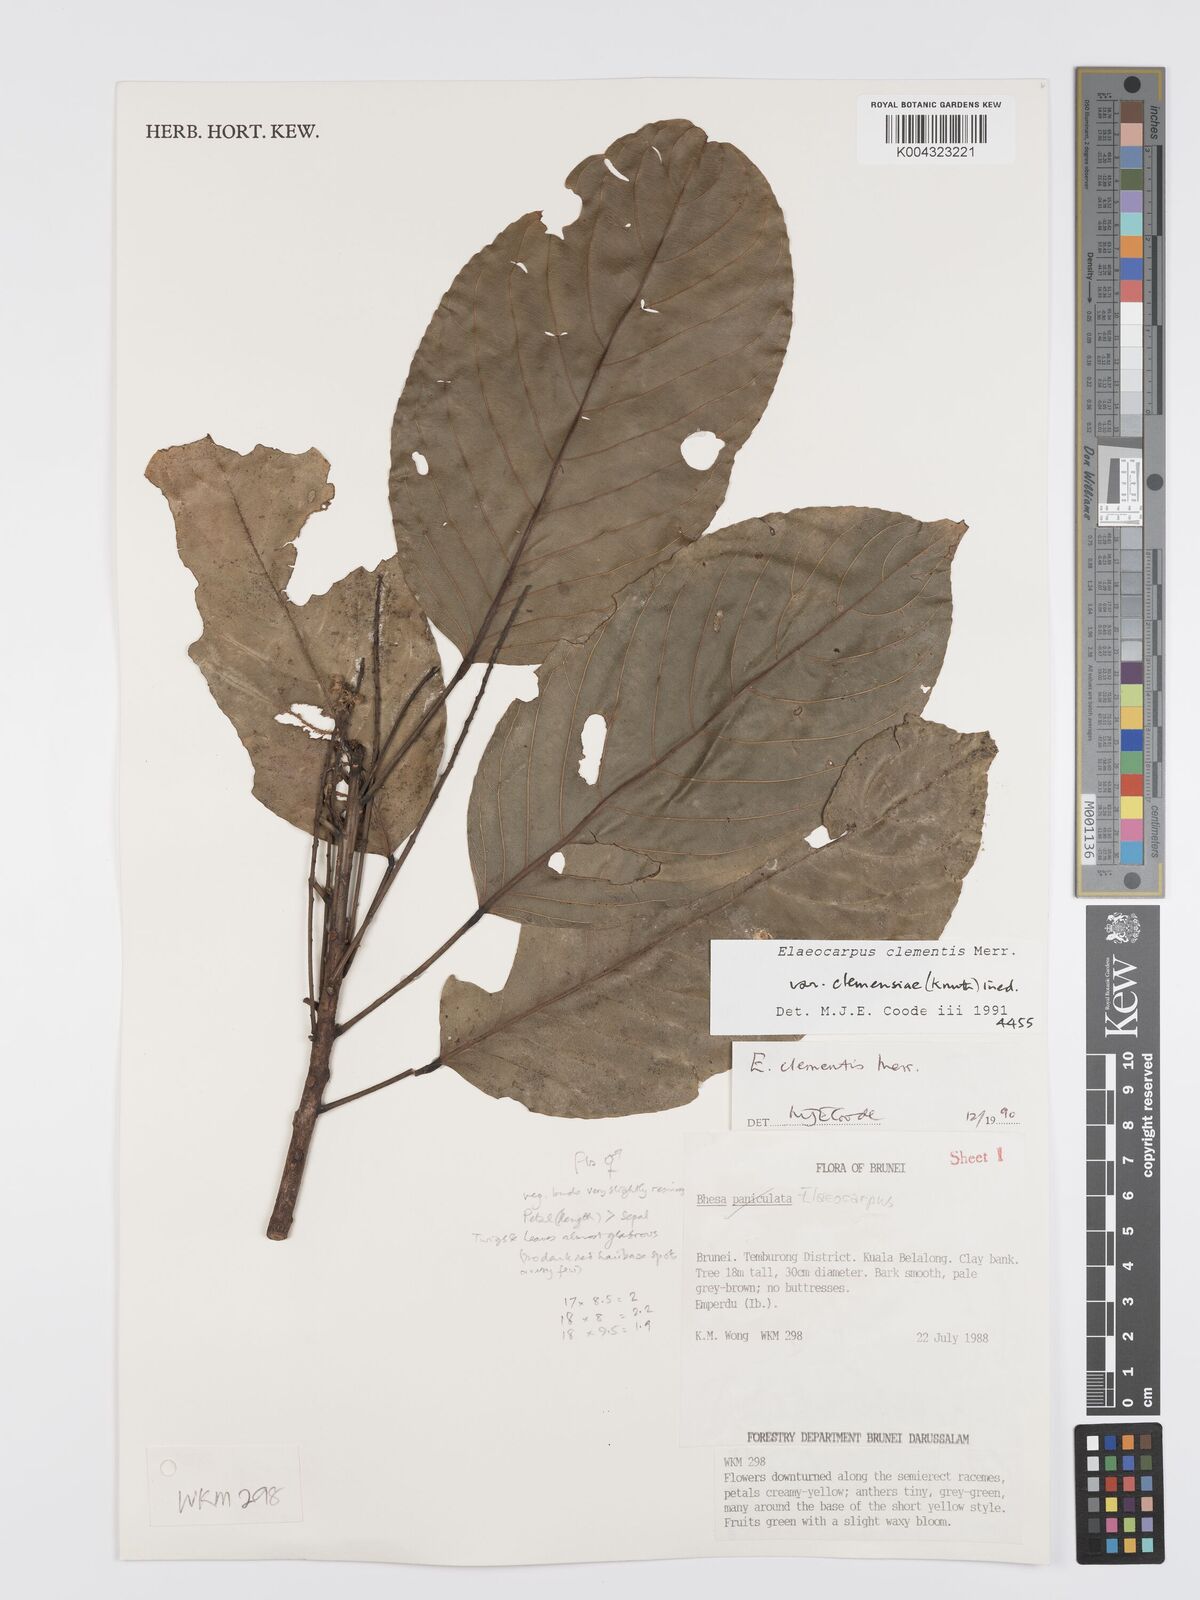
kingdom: Plantae
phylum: Tracheophyta
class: Magnoliopsida
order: Oxalidales
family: Elaeocarpaceae
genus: Elaeocarpus
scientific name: Elaeocarpus clementis
